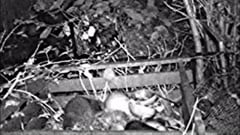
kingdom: Animalia
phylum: Chordata
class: Mammalia
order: Carnivora
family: Procyonidae
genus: Procyon
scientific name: Procyon lotor
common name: Raccoon
